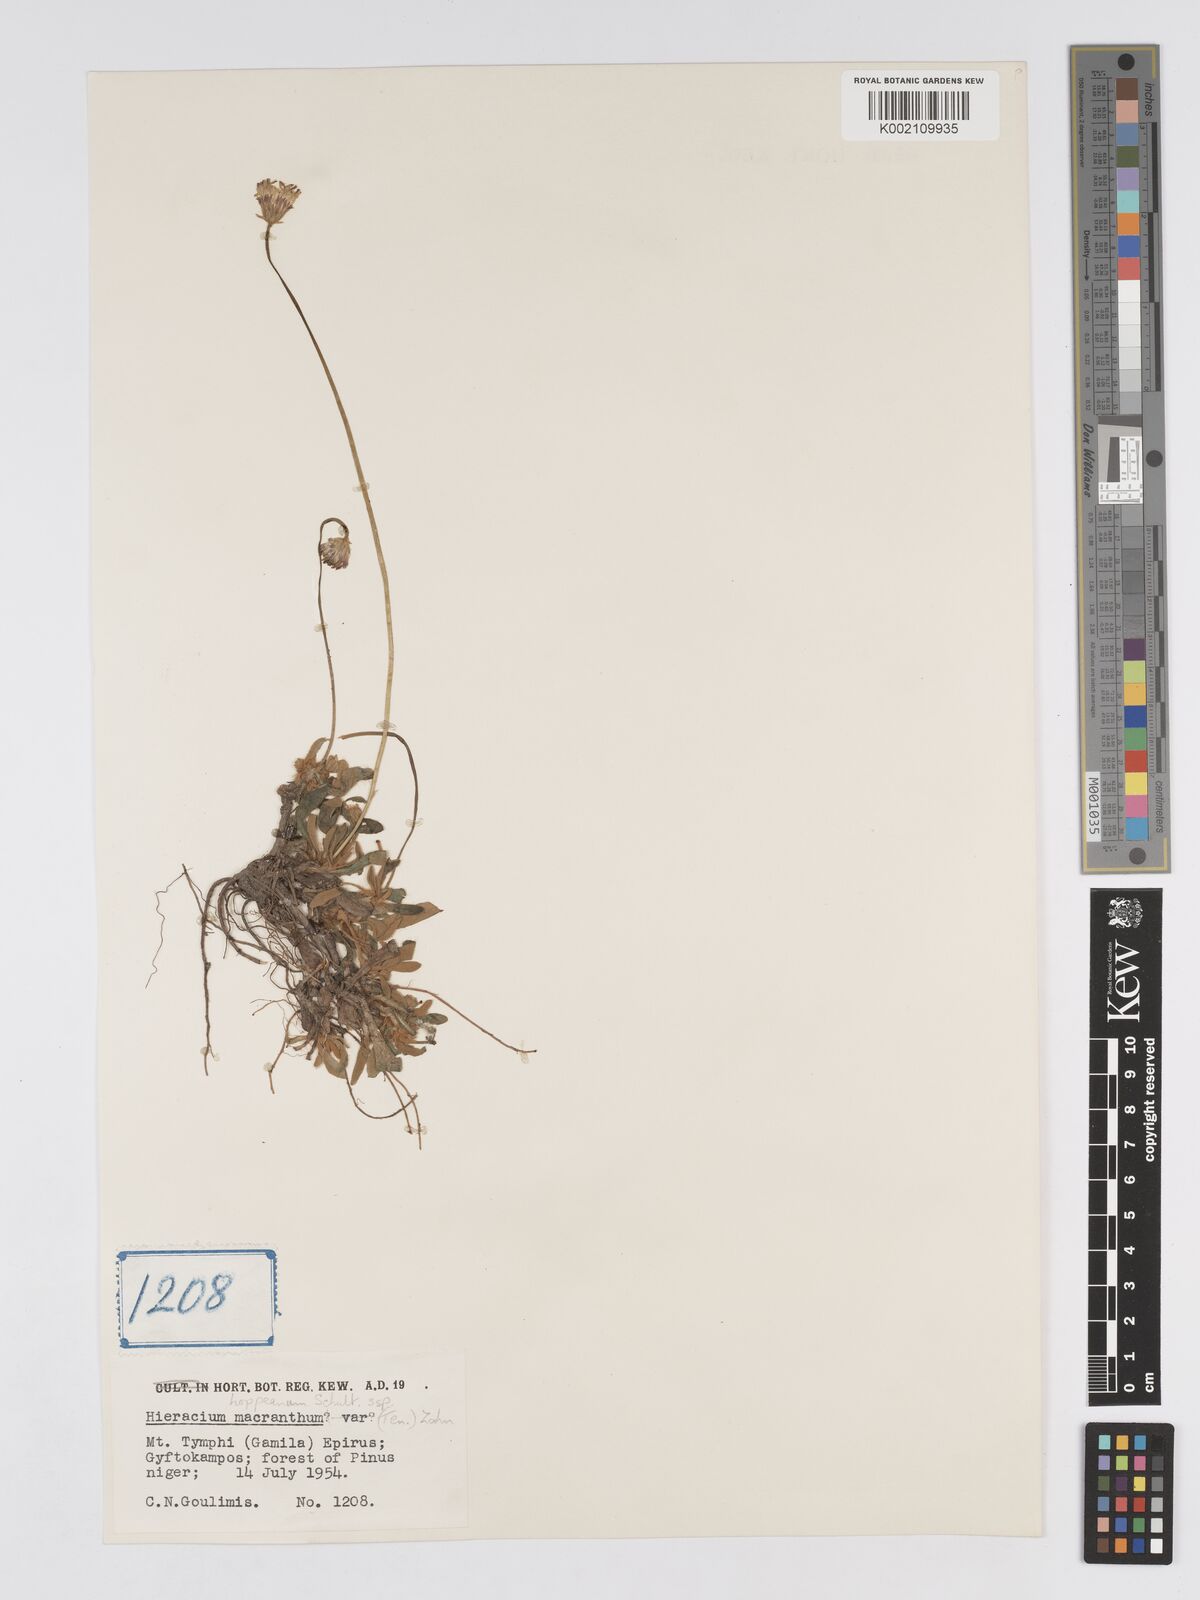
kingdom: Plantae
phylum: Tracheophyta
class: Magnoliopsida
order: Asterales
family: Asteraceae
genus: Pilosella
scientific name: Pilosella hoppeana
